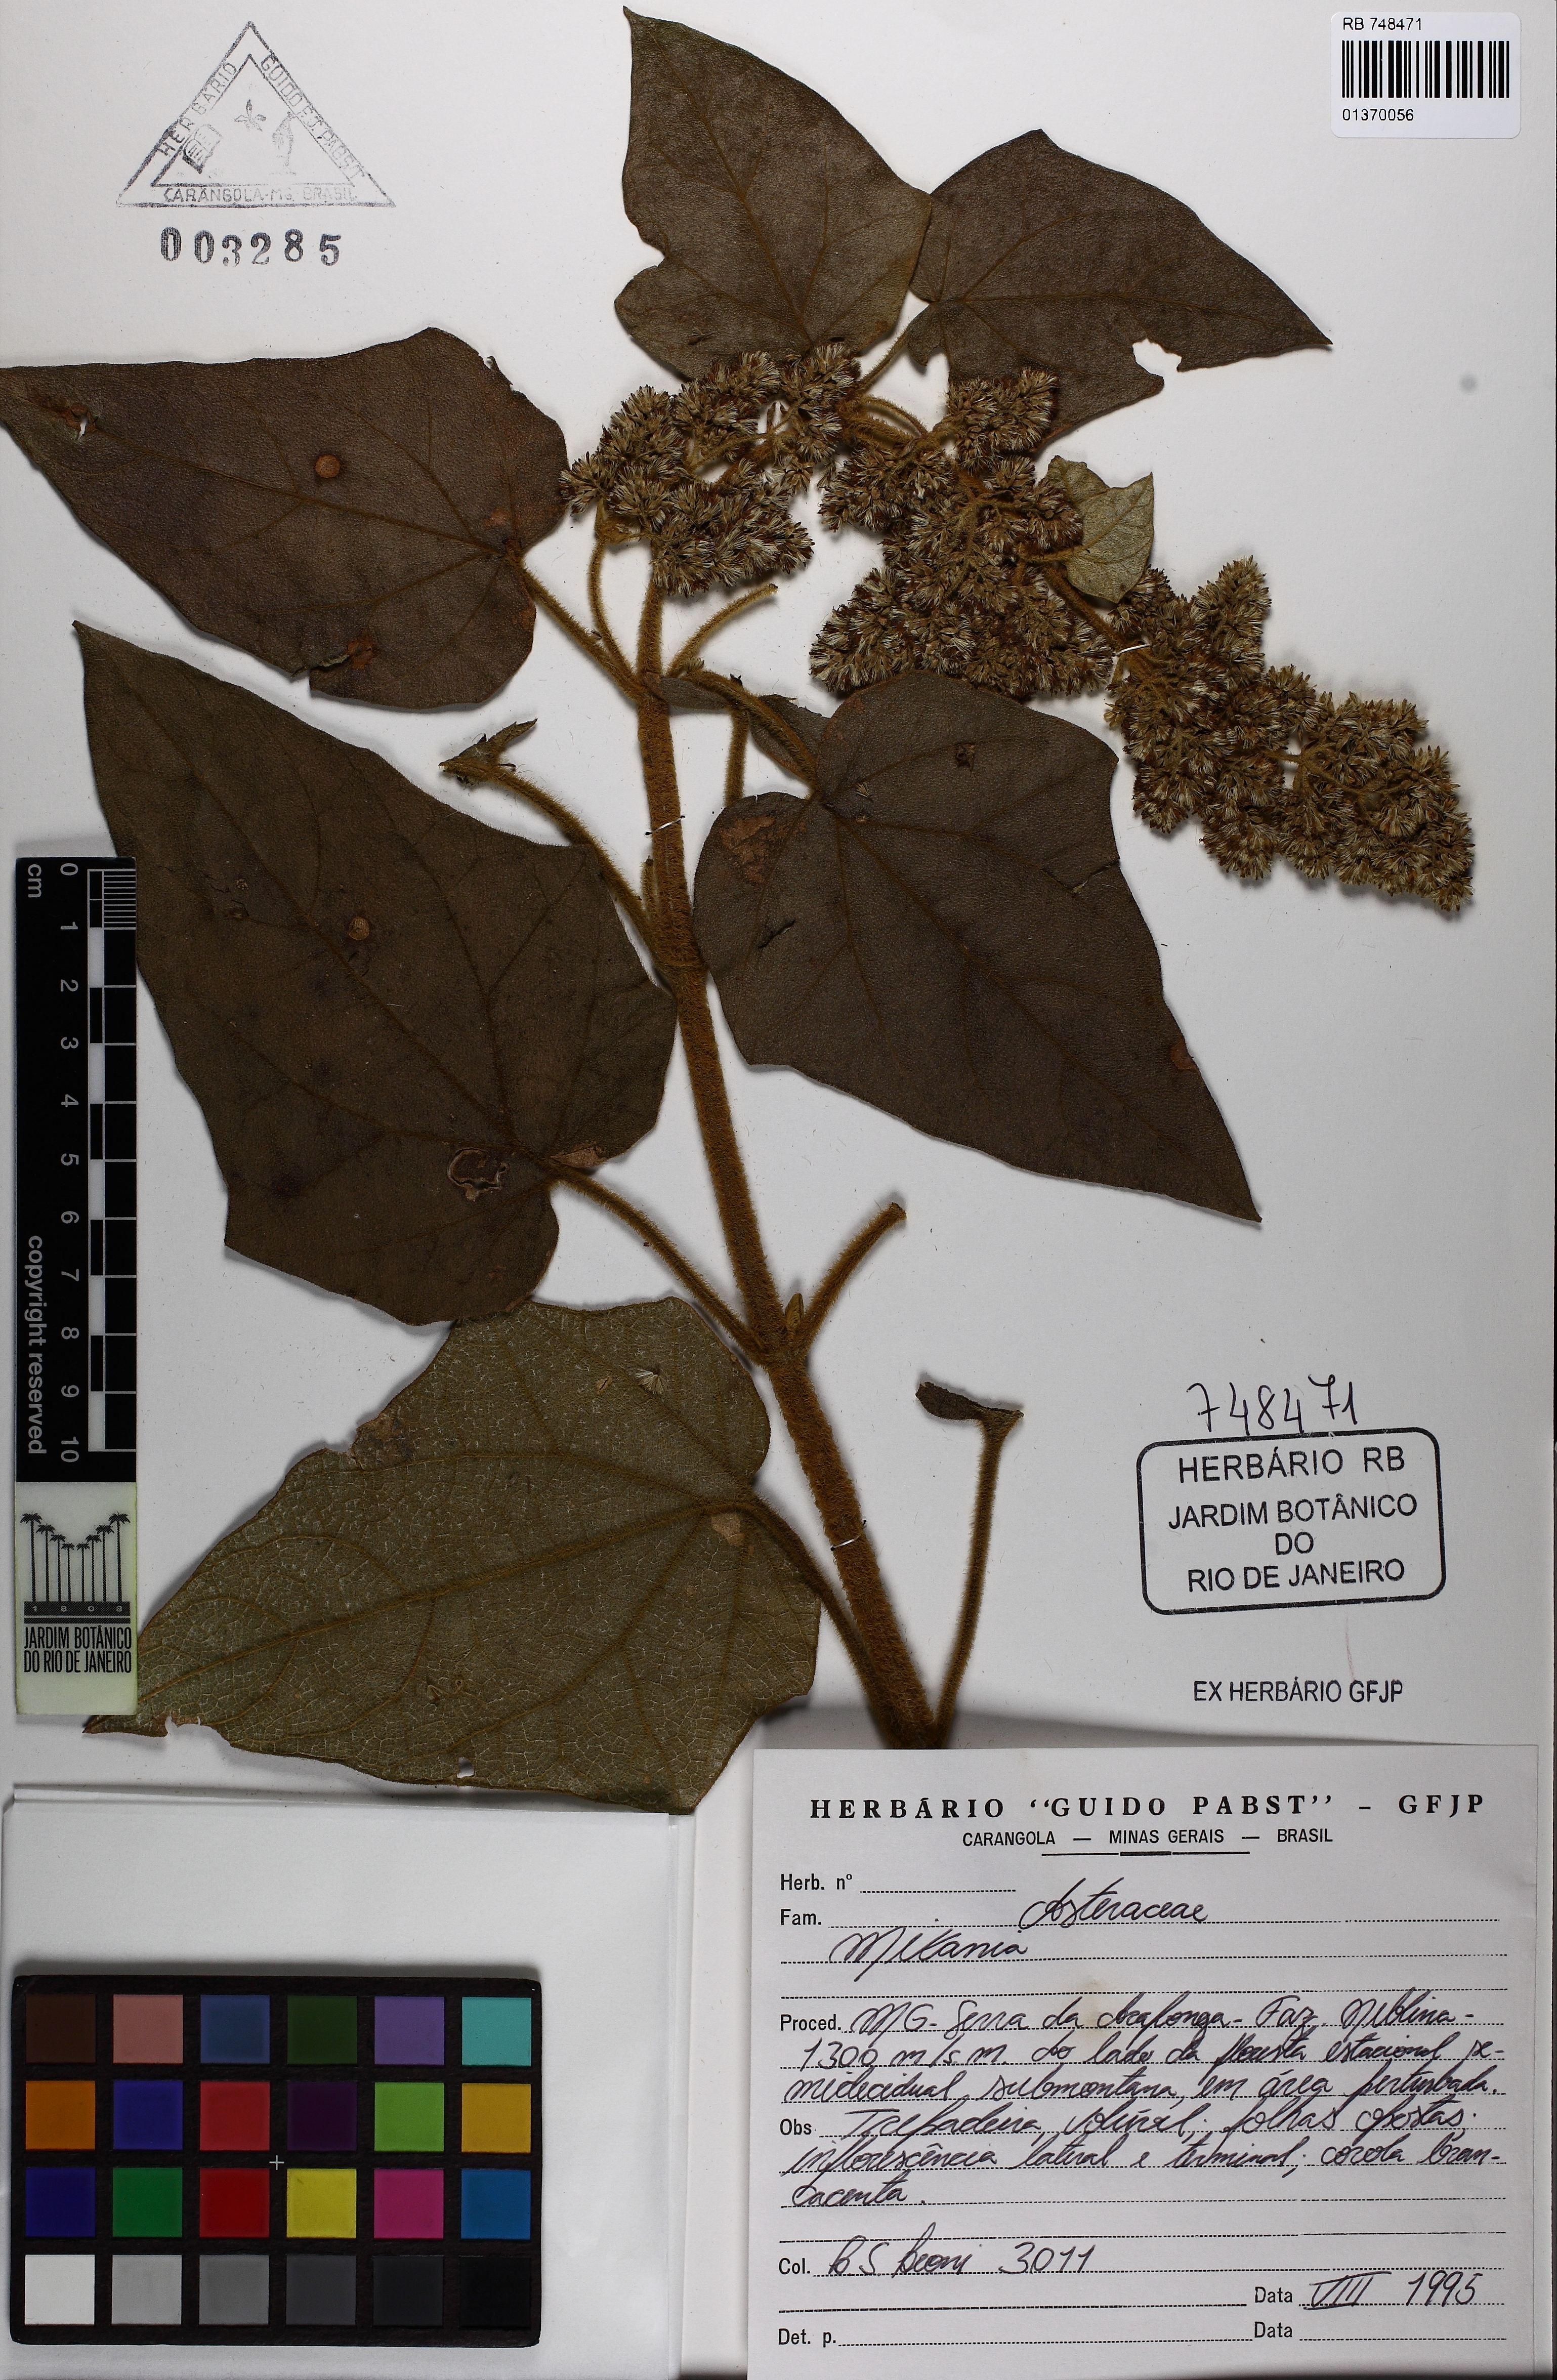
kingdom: Plantae
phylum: Tracheophyta
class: Magnoliopsida
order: Asterales
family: Asteraceae
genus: Mikania
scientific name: Mikania
